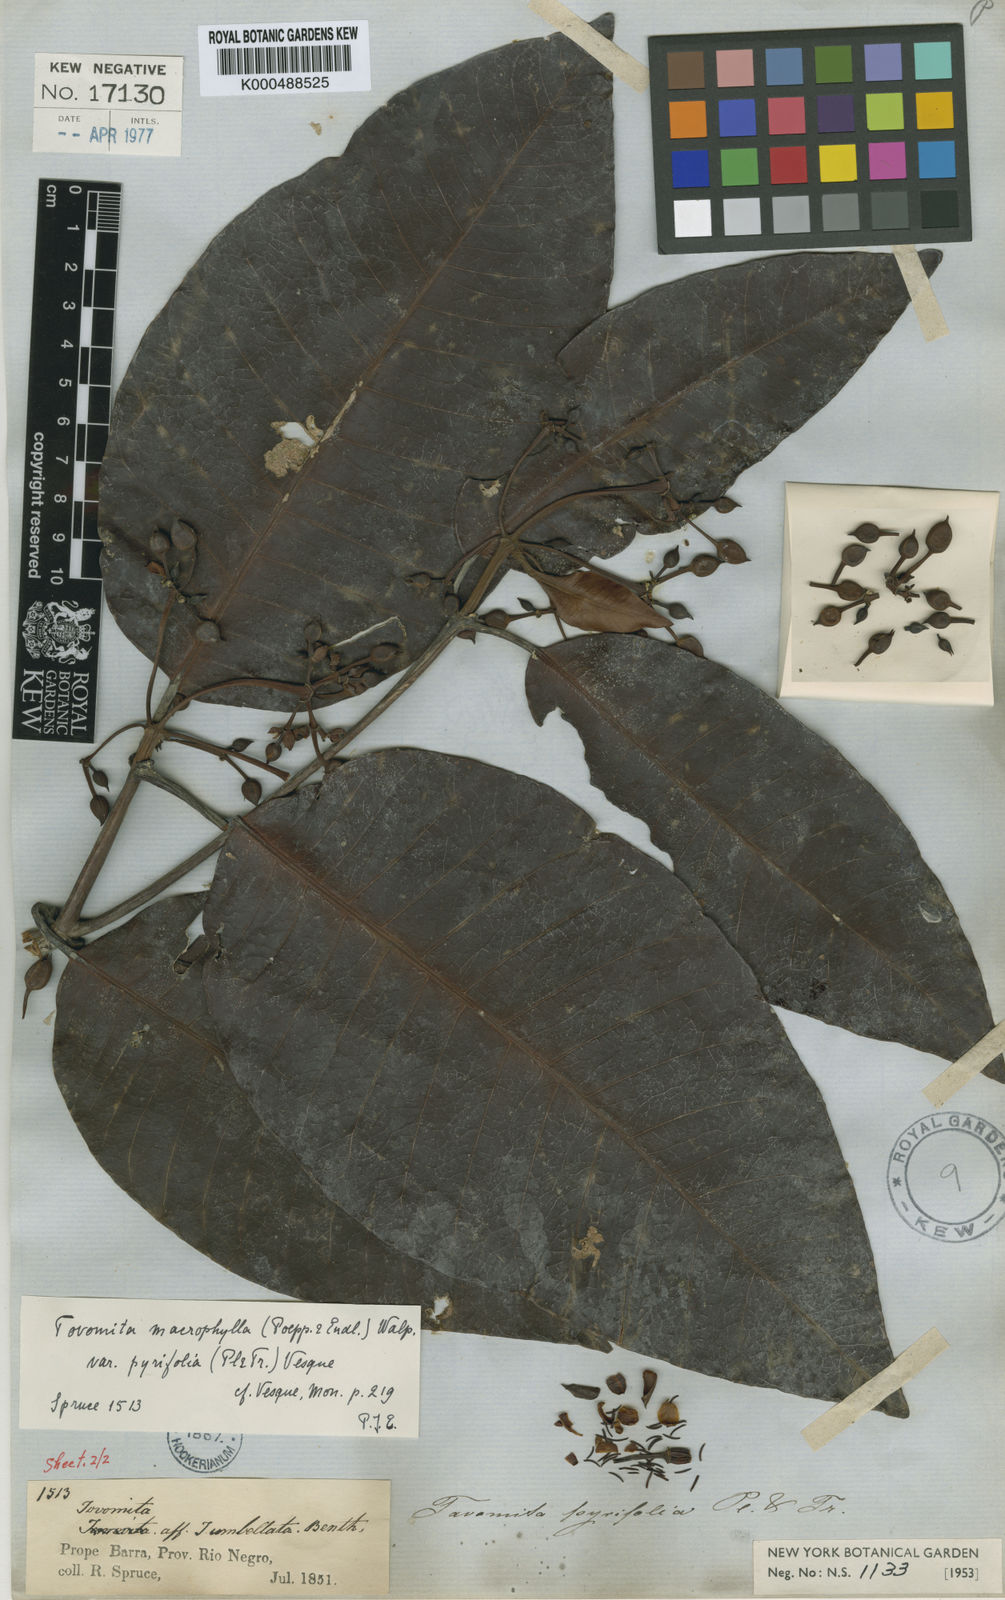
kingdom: Plantae
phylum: Tracheophyta
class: Magnoliopsida
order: Malpighiales
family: Clusiaceae
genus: Tovomita
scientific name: Tovomita macrophylla
